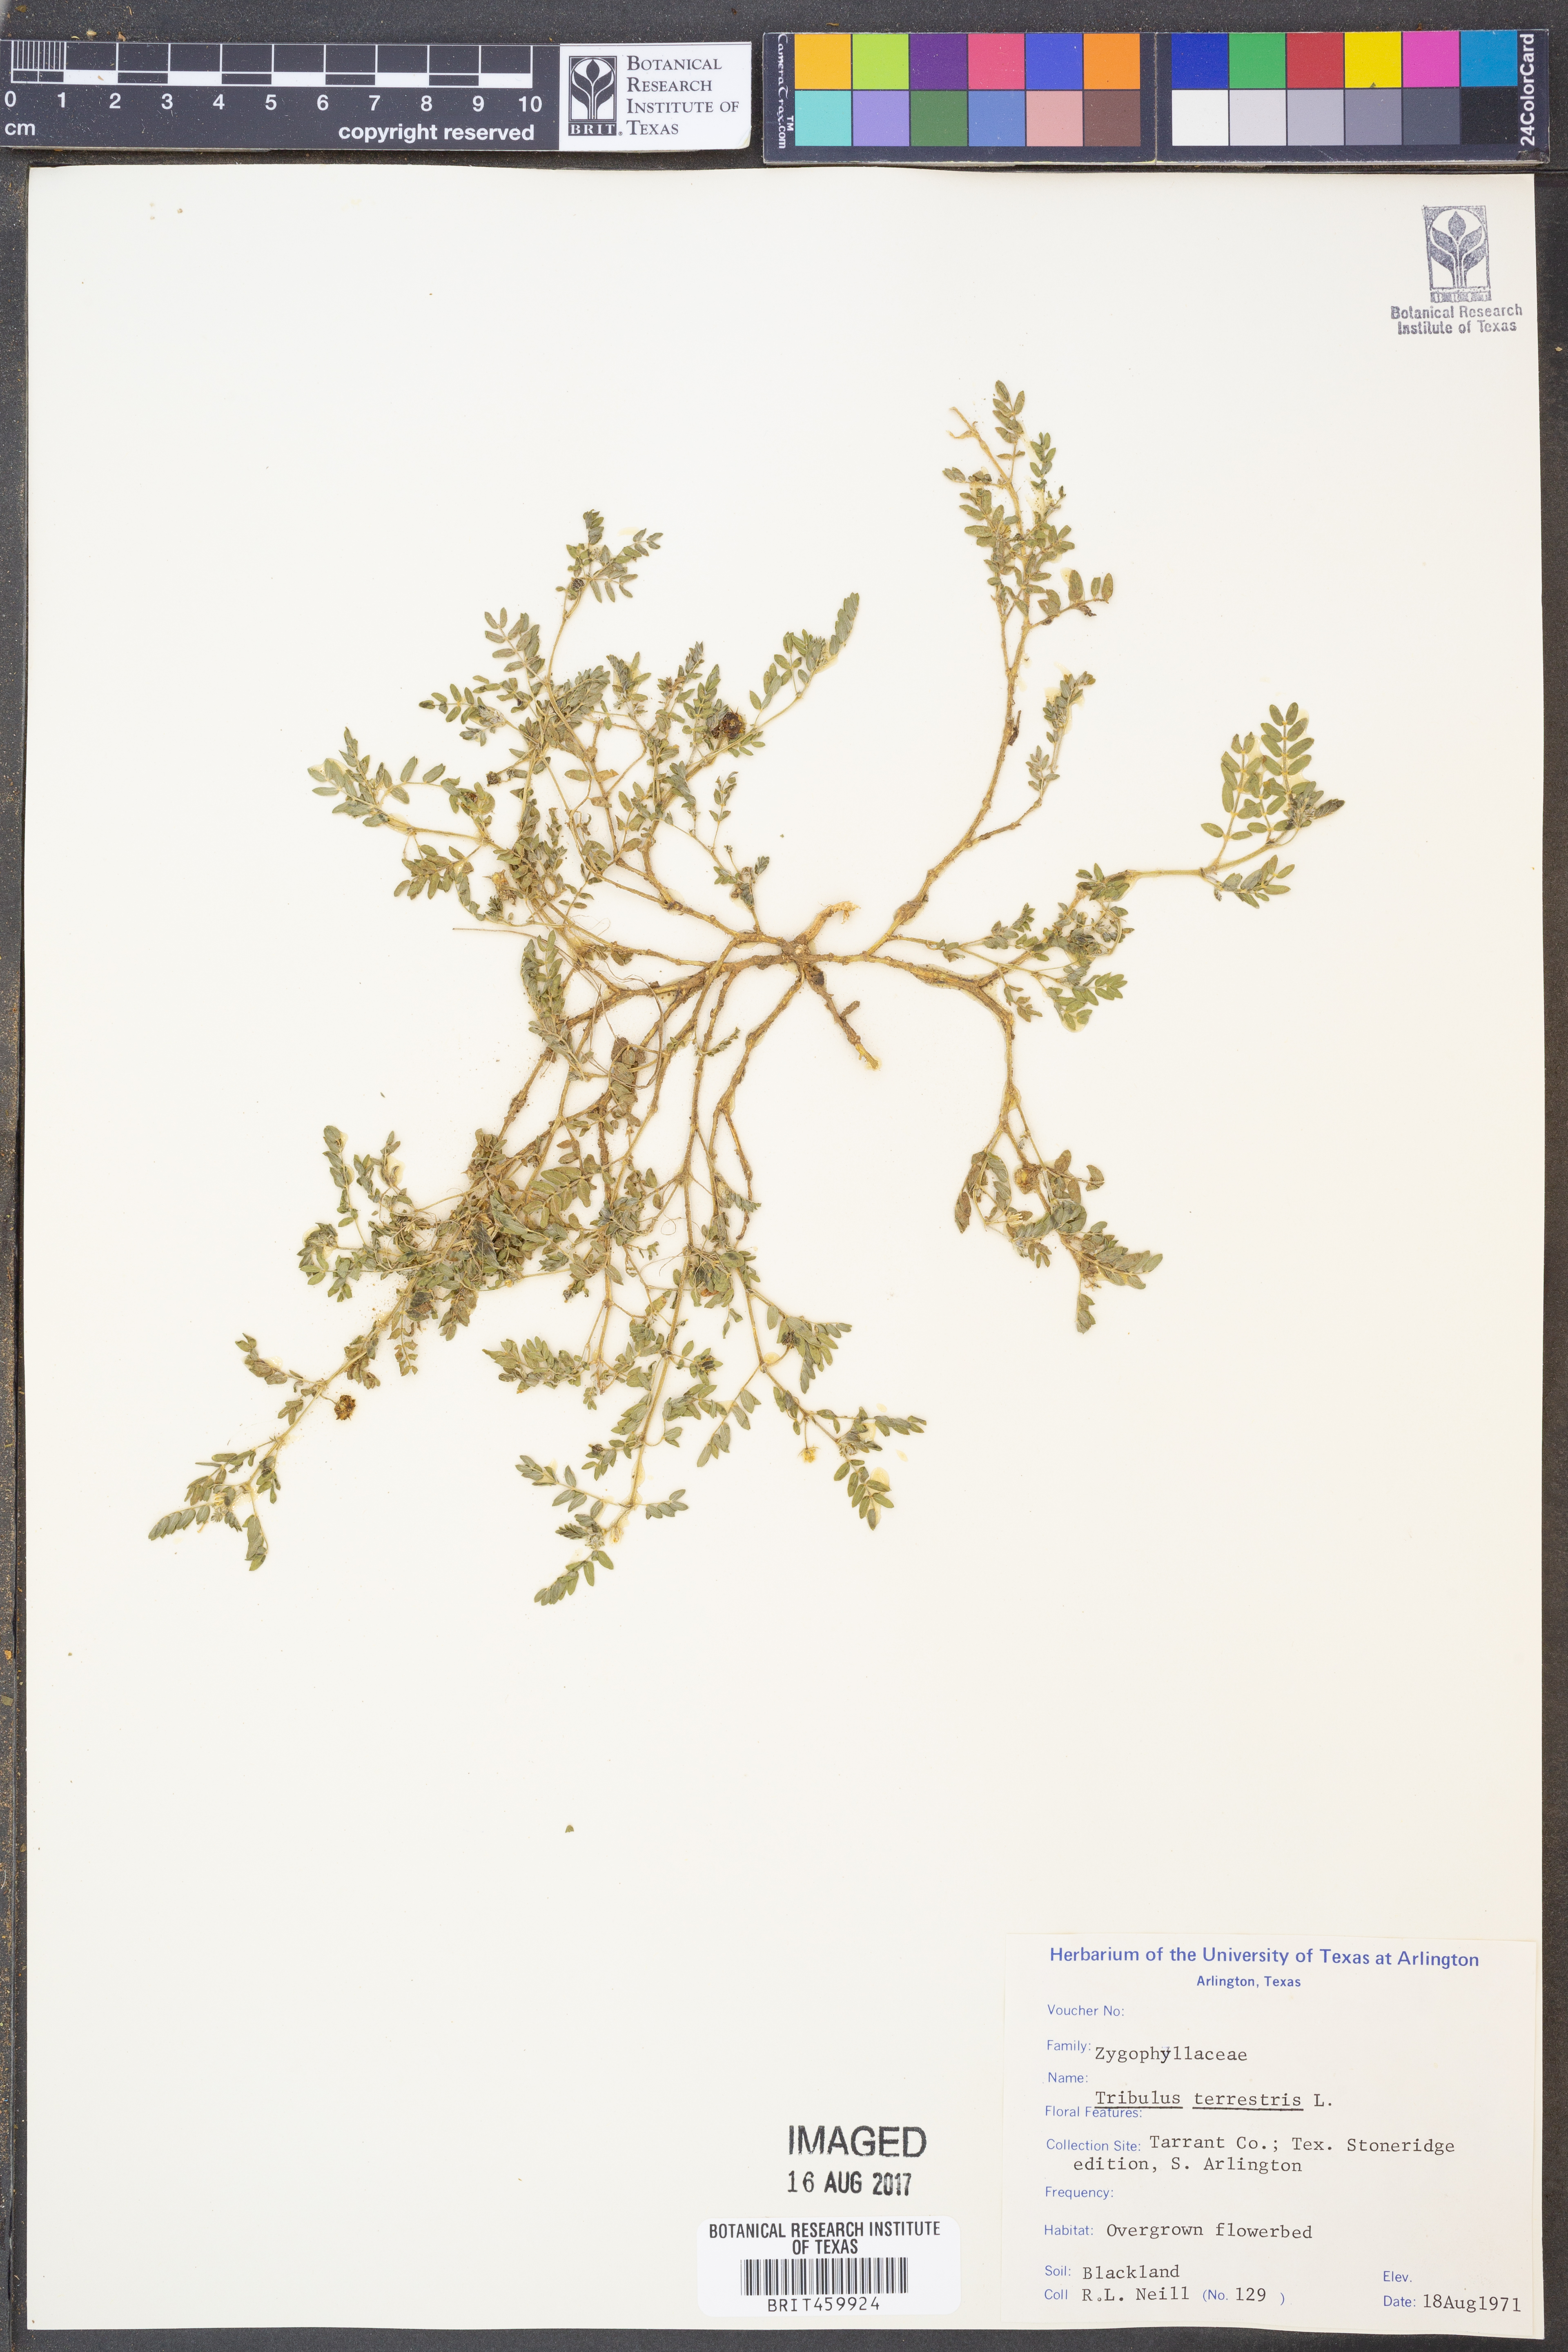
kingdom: Plantae
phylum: Tracheophyta
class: Magnoliopsida
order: Zygophyllales
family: Zygophyllaceae
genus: Tribulus
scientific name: Tribulus terrestris
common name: Puncturevine
